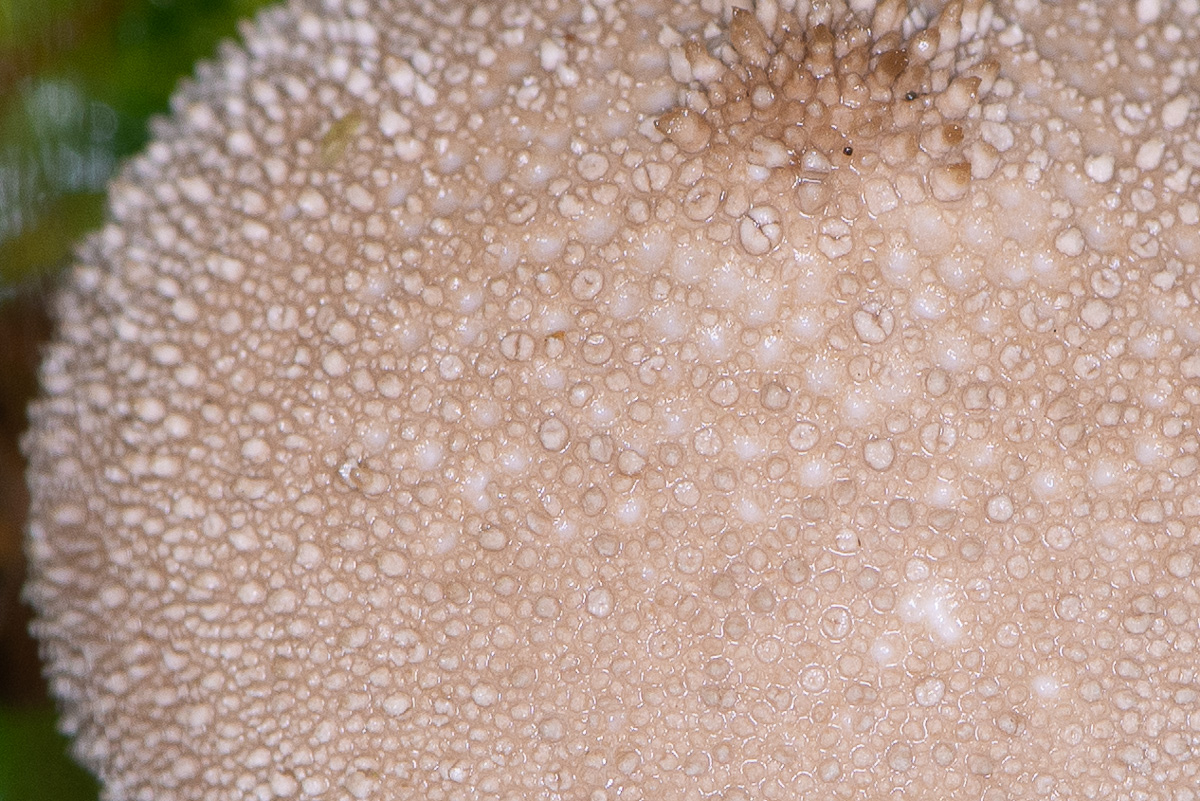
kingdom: Fungi
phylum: Basidiomycota
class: Agaricomycetes
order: Agaricales
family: Lycoperdaceae
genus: Lycoperdon
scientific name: Lycoperdon perlatum
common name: krystal-støvbold
